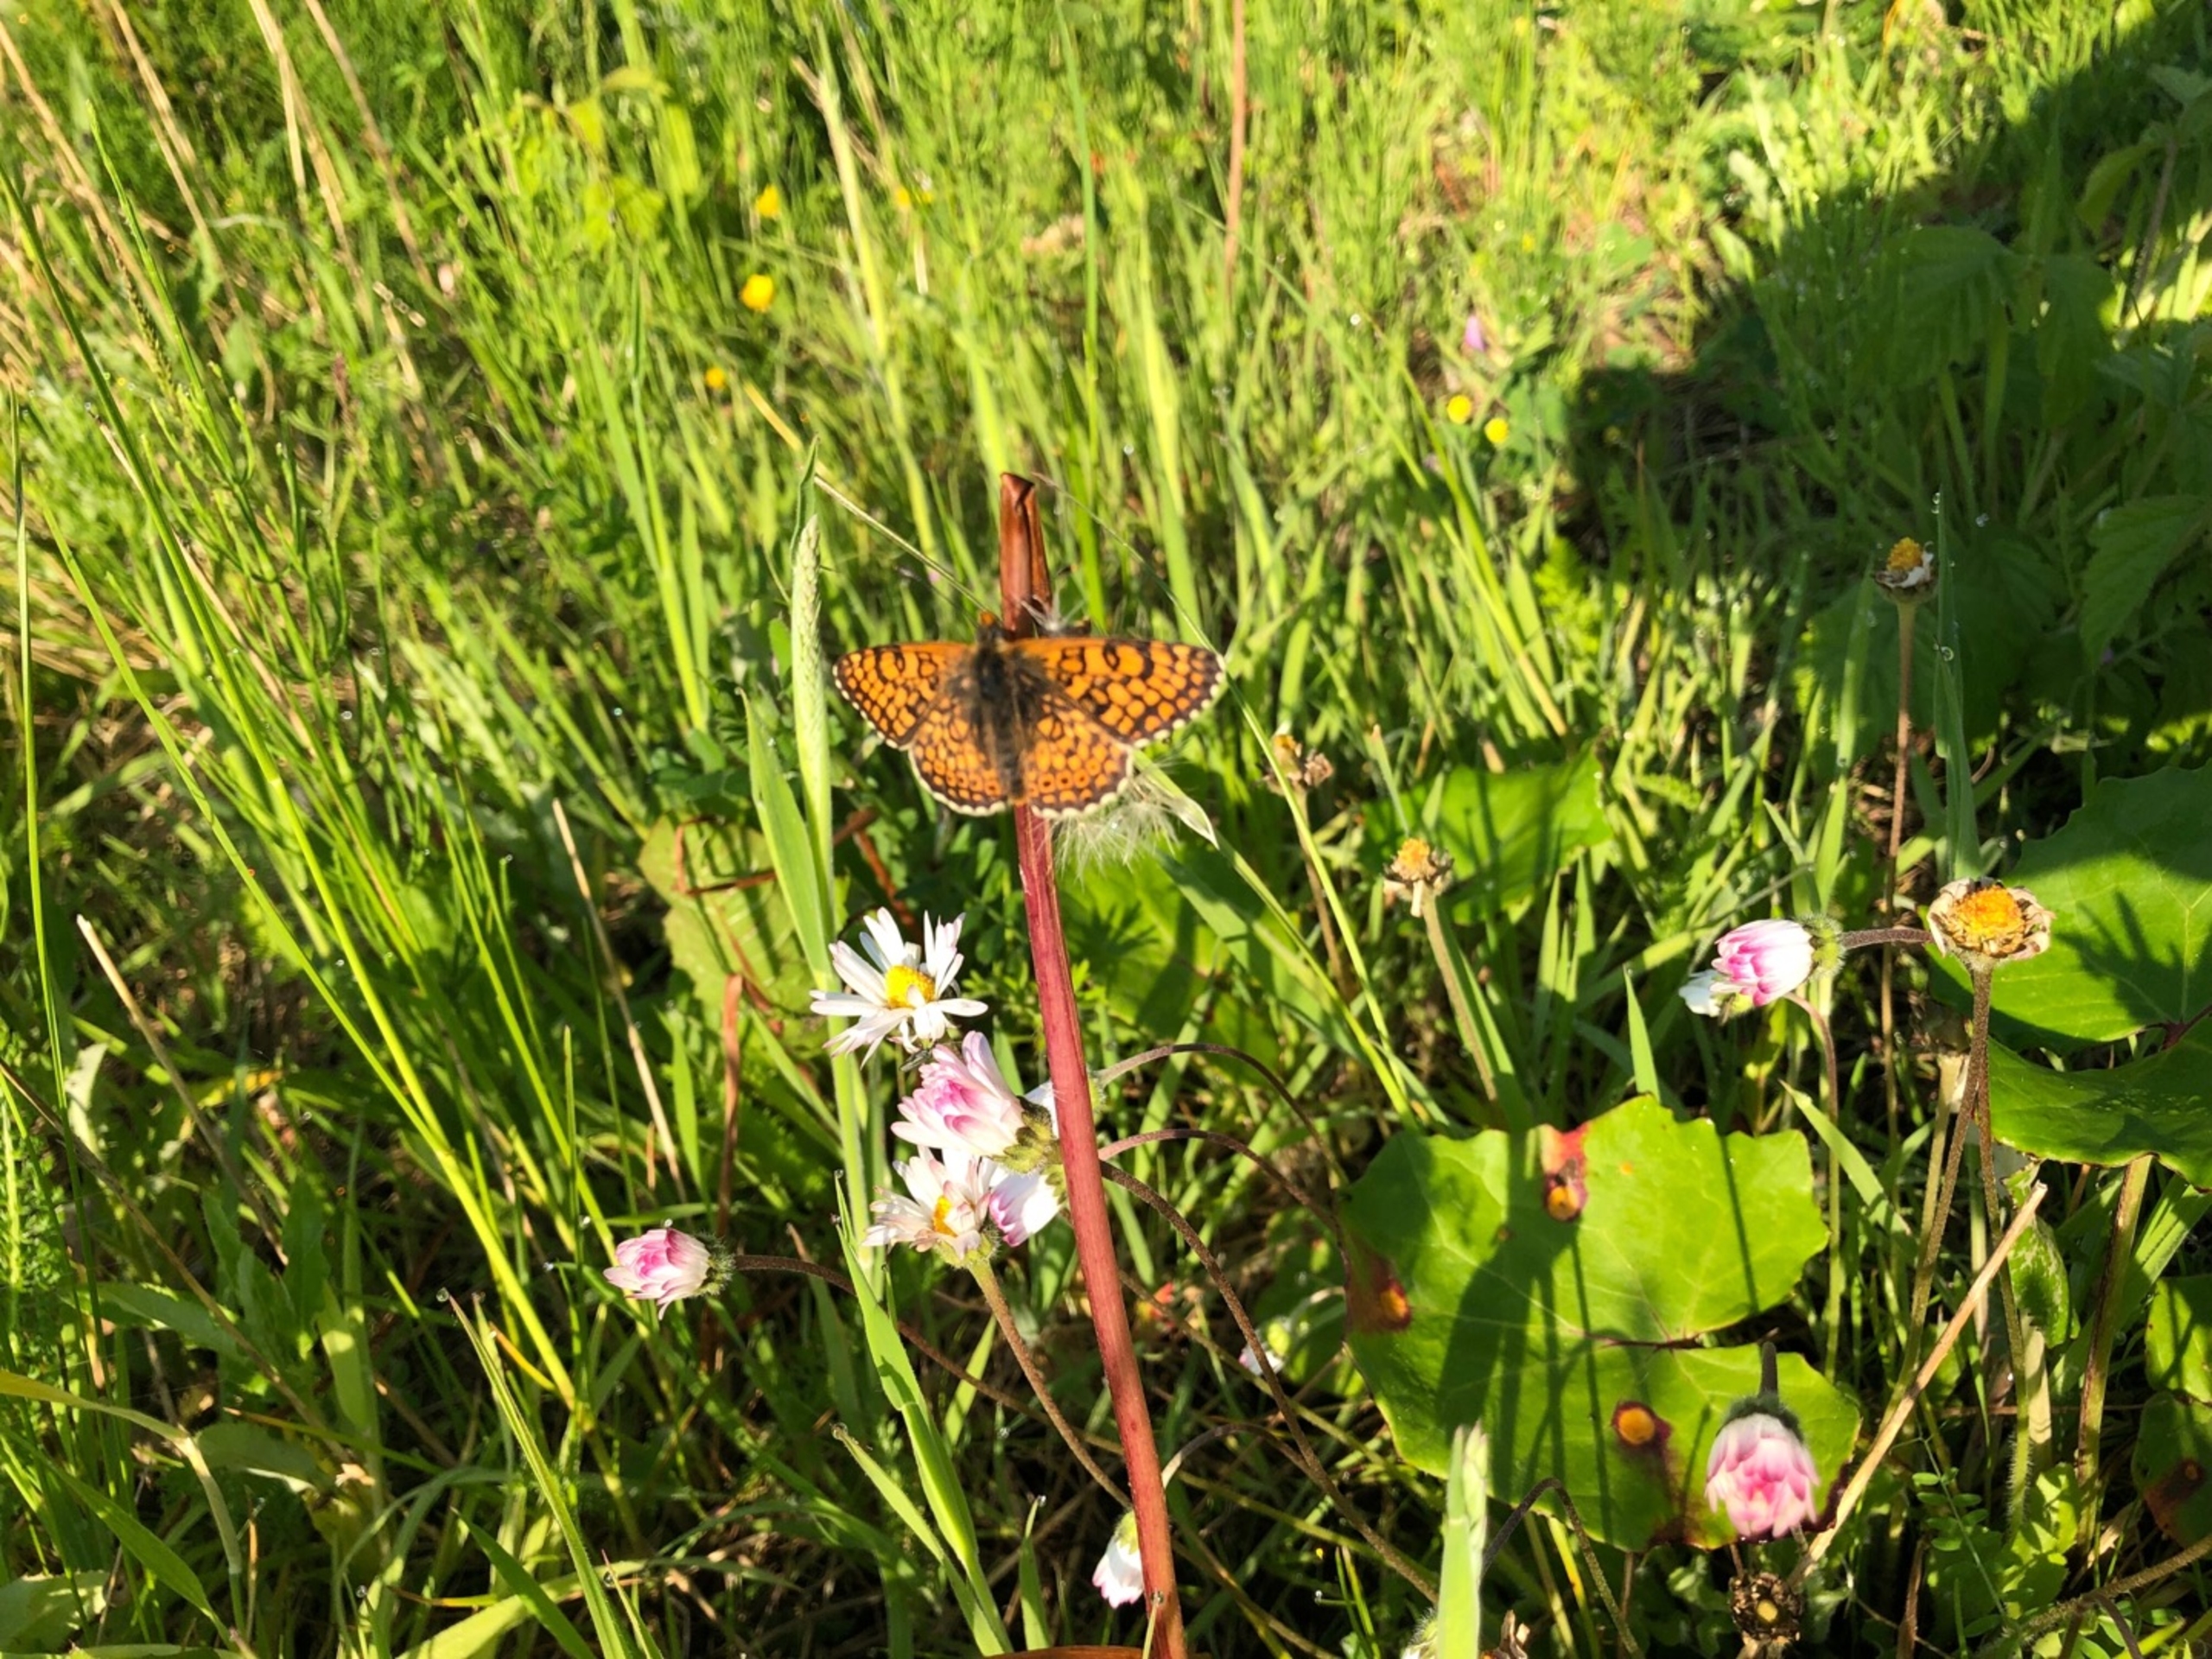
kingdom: Animalia
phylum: Arthropoda
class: Insecta
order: Lepidoptera
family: Nymphalidae
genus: Melitaea
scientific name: Melitaea cinxia
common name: Okkergul pletvinge
